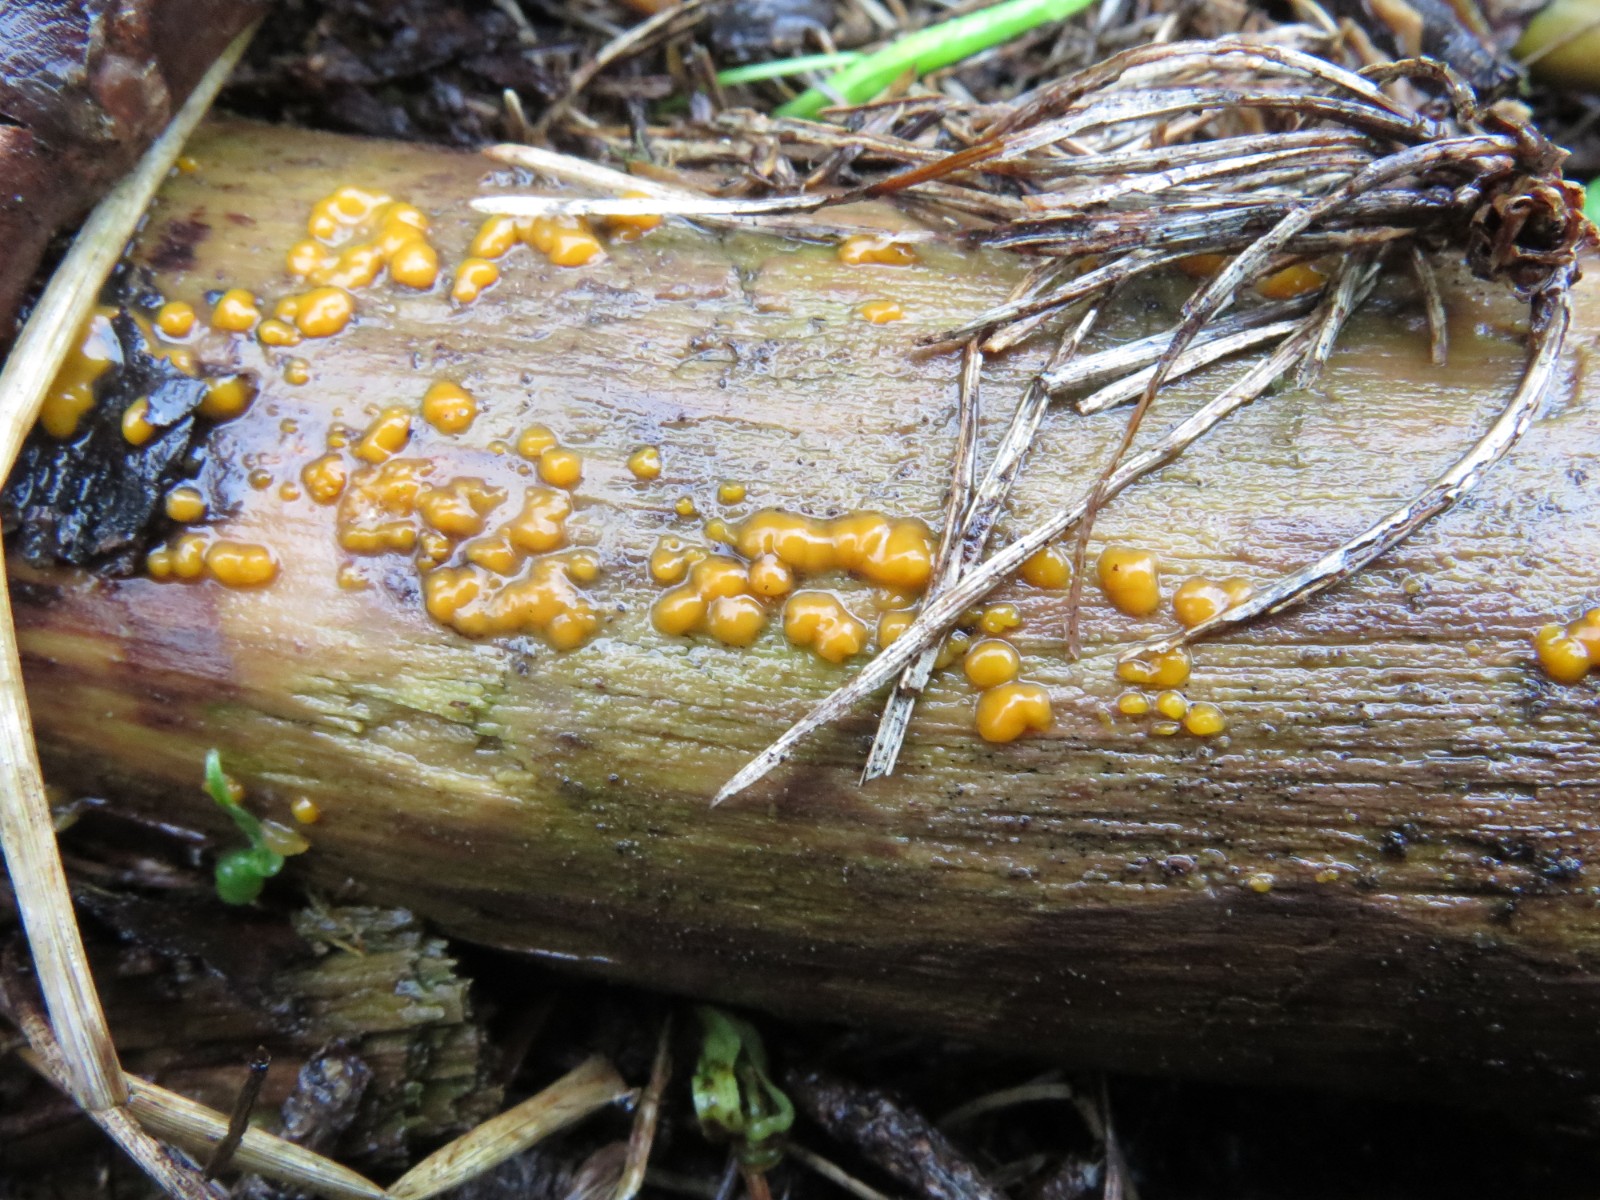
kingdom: Fungi
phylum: Ascomycota
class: Leotiomycetes
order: Helotiales
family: Pezizellaceae
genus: Calycina
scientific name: Calycina citrina
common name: almindelig gulskive
